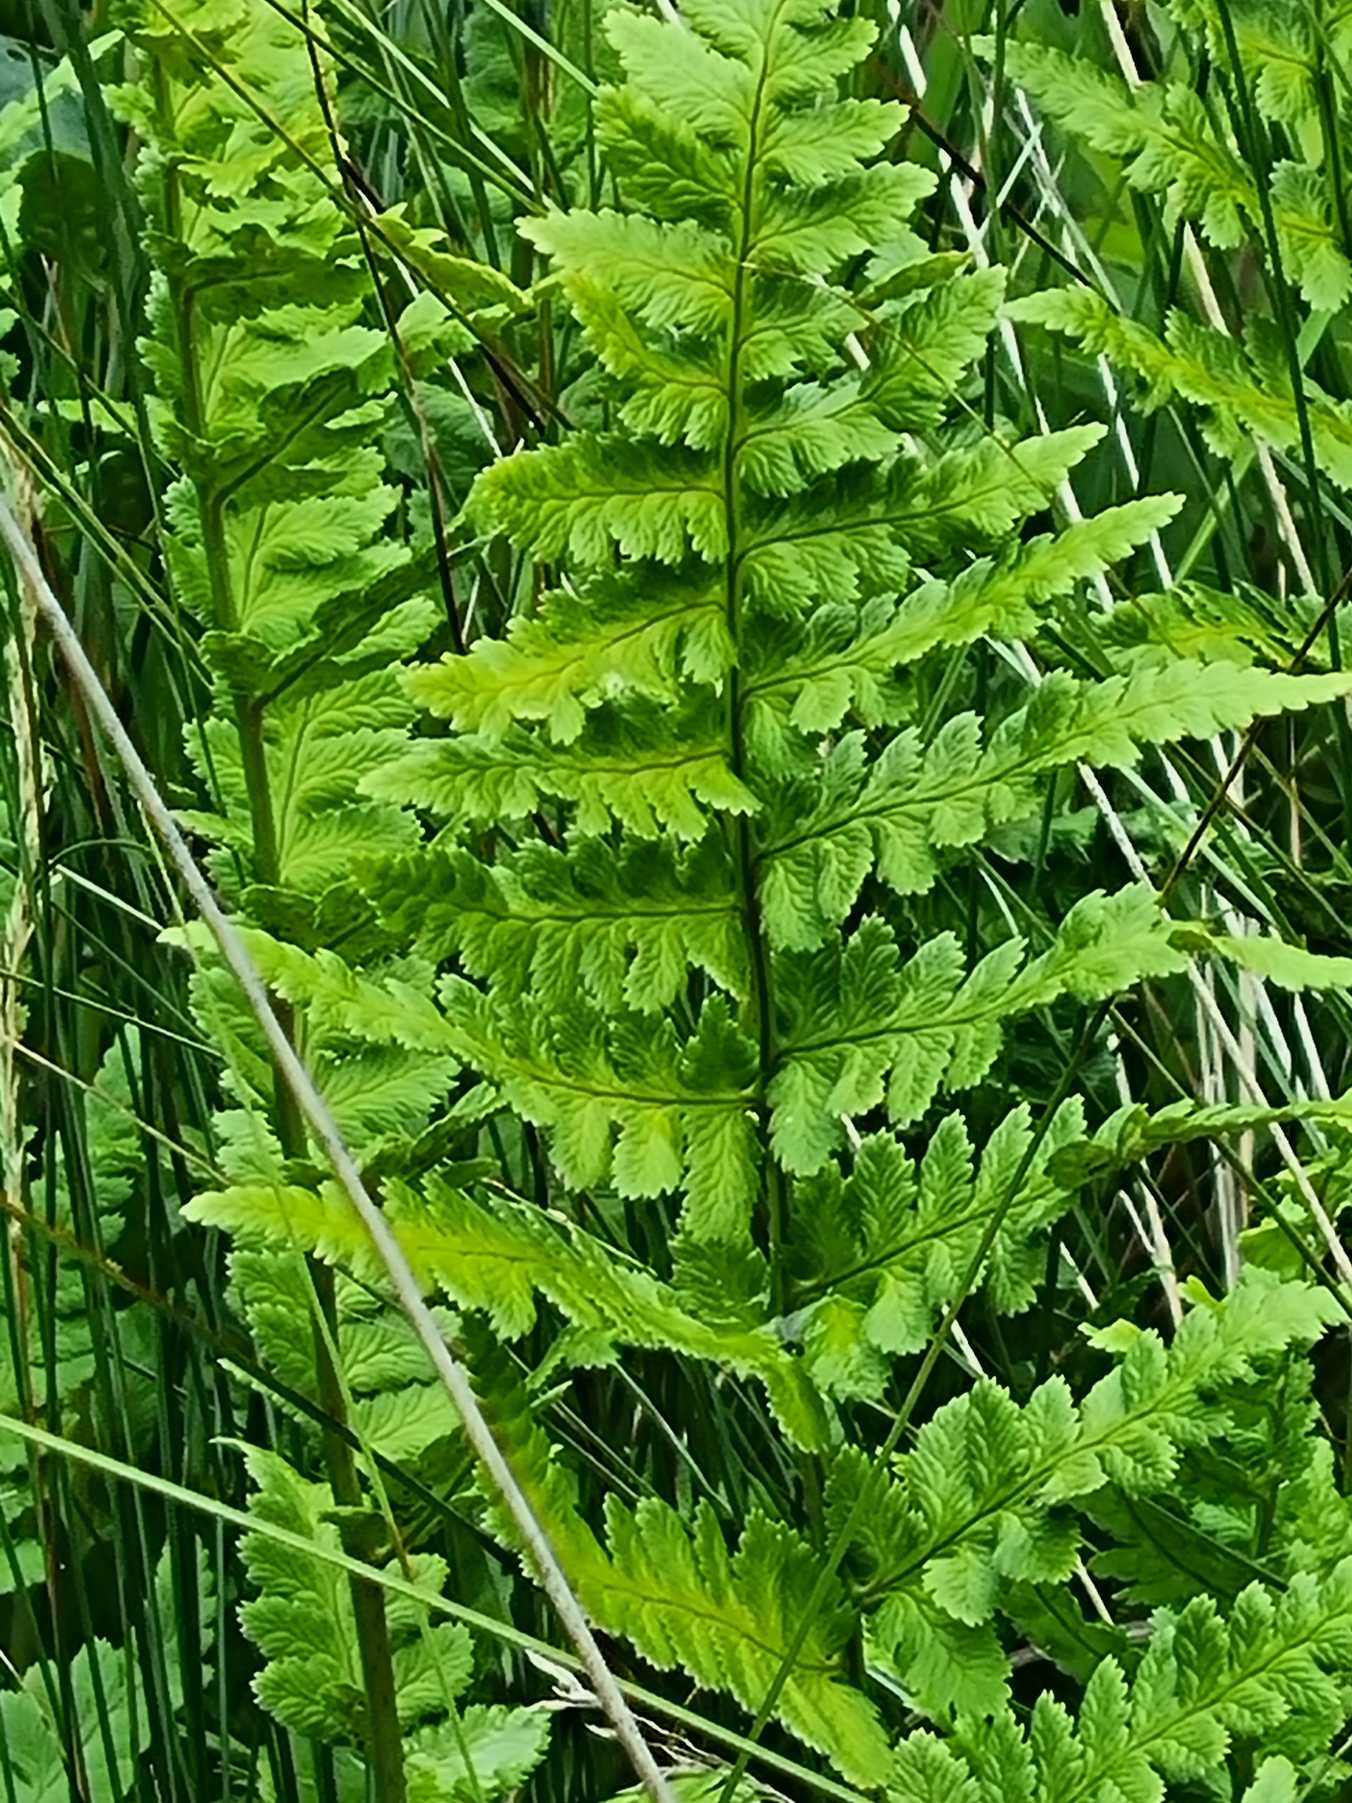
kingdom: Plantae
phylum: Tracheophyta
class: Polypodiopsida
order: Polypodiales
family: Dryopteridaceae
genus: Dryopteris
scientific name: Dryopteris cristata
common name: Butfinnet mangeløv
